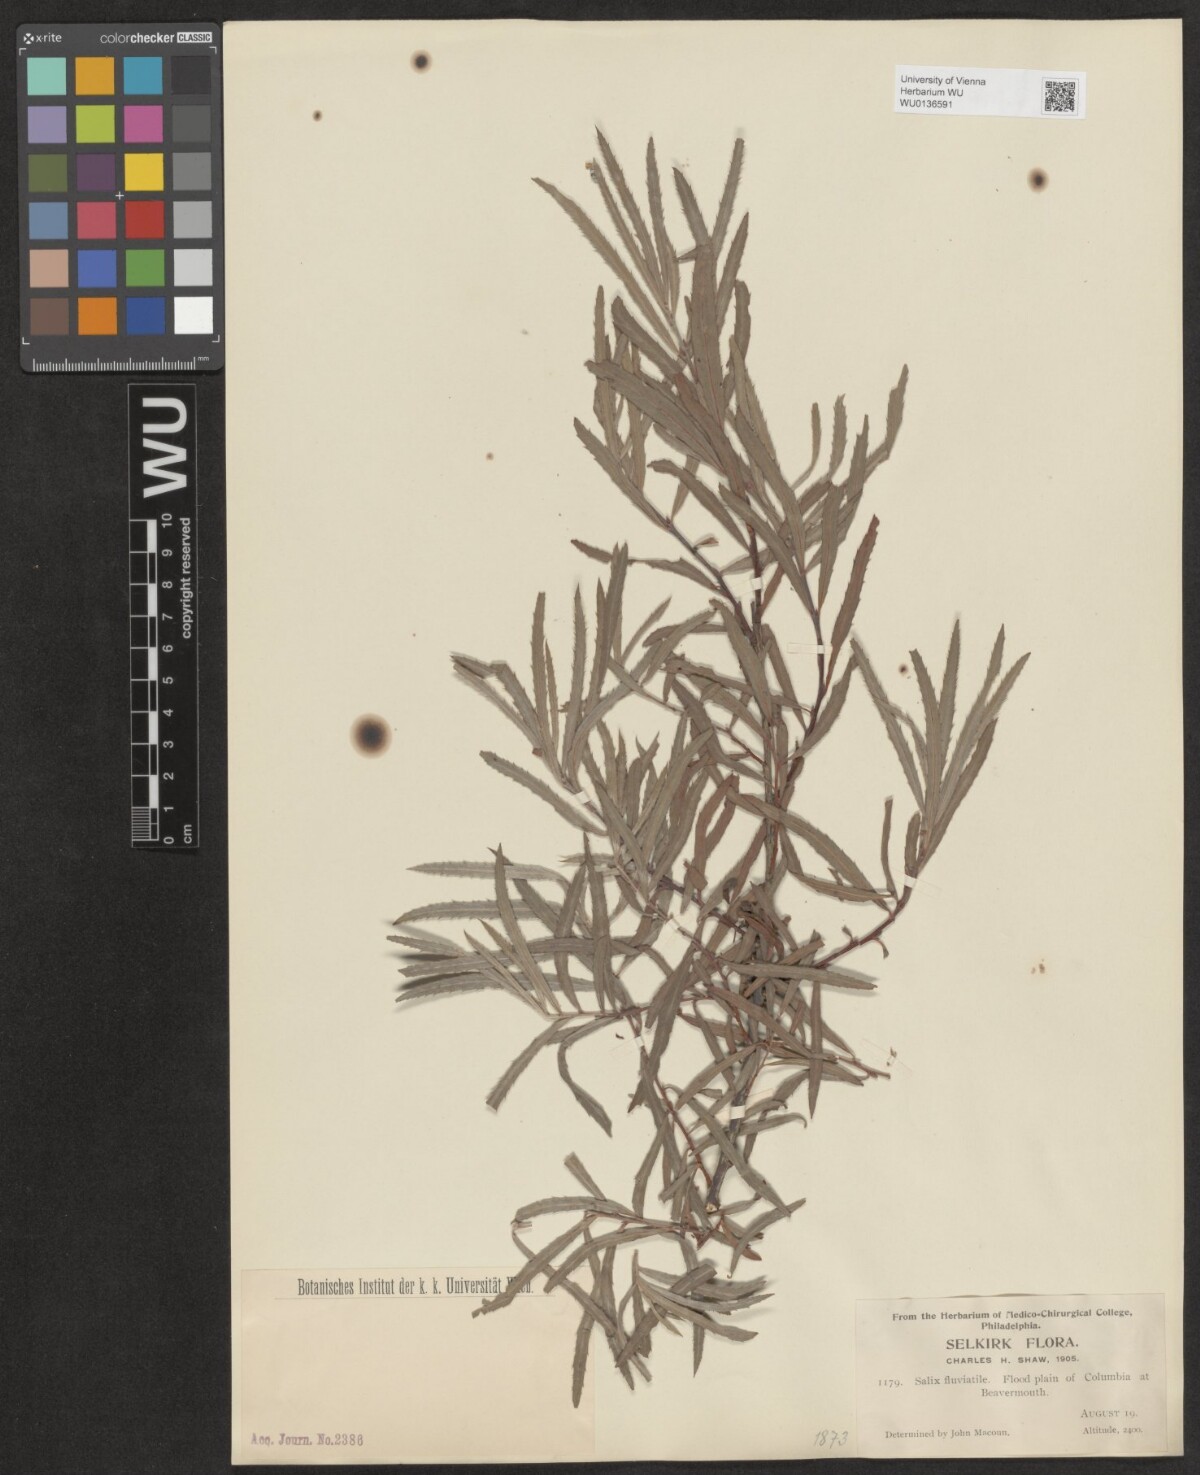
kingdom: Plantae
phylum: Tracheophyta
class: Magnoliopsida
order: Malpighiales
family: Salicaceae
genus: Salix
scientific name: Salix melanopsis
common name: Dusky willow
